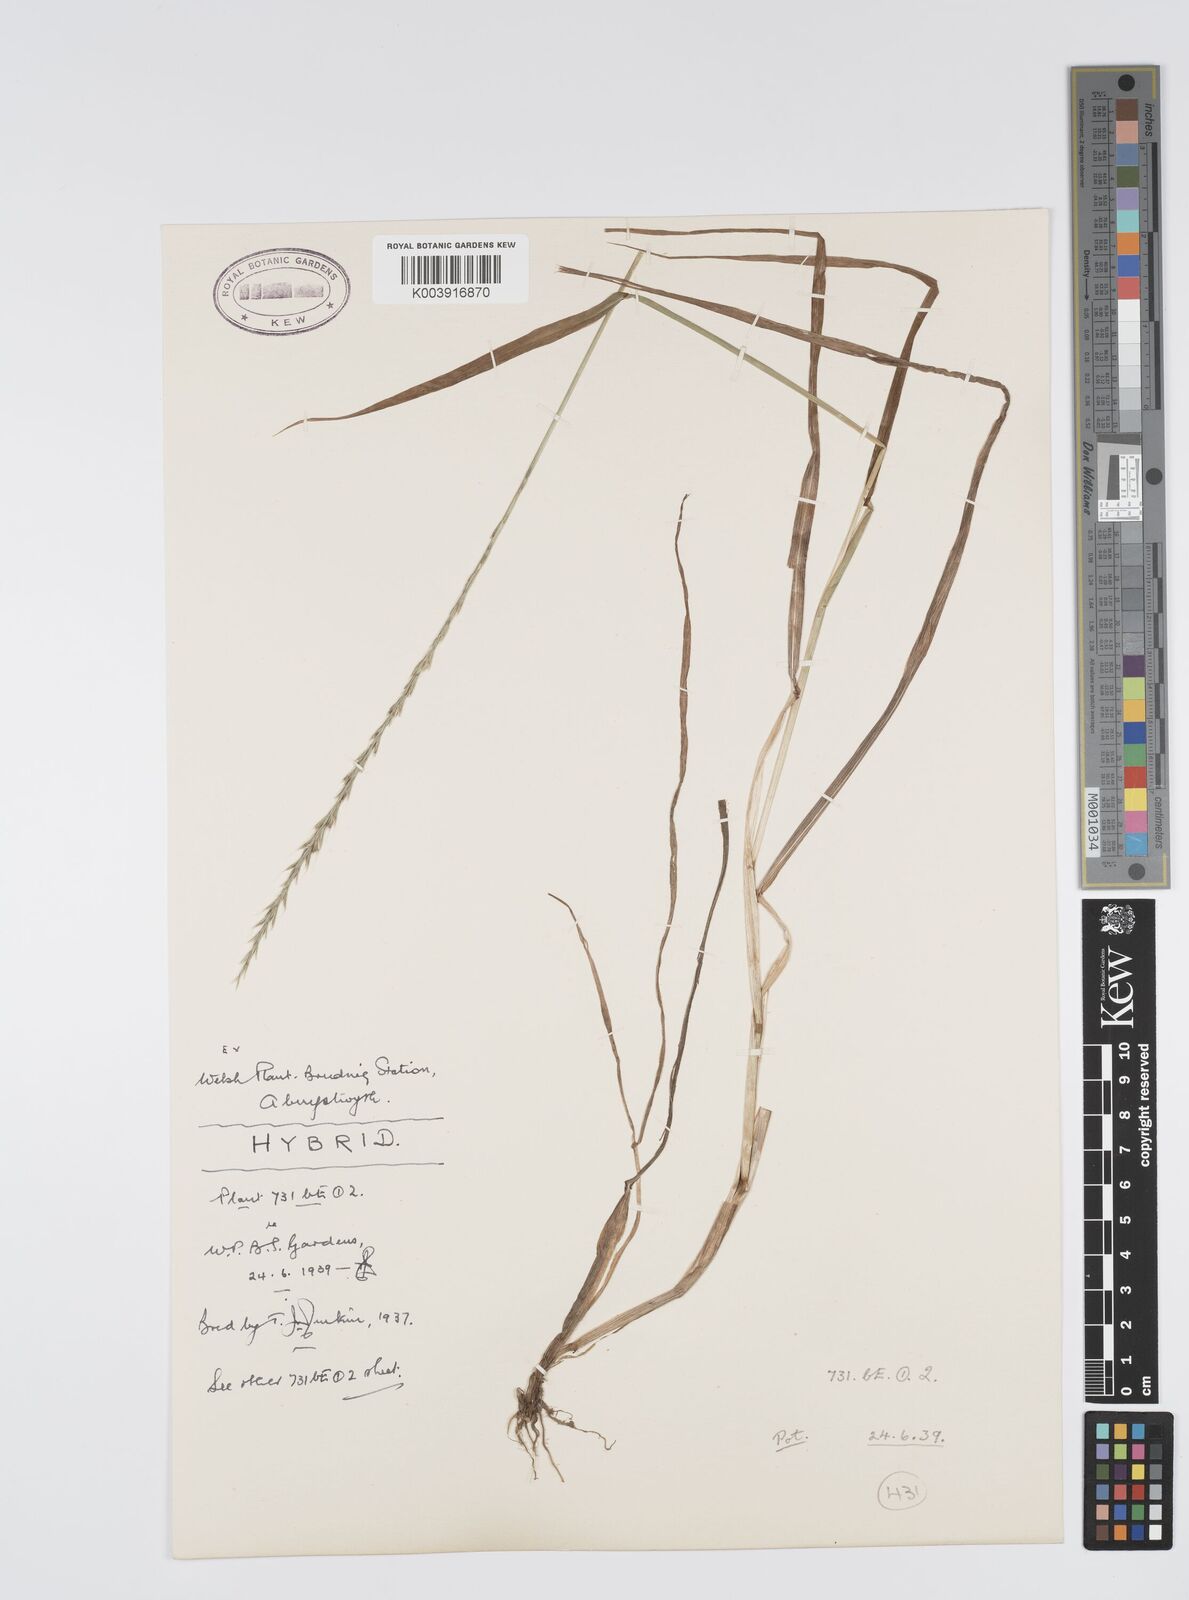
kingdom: Plantae
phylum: Tracheophyta
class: Liliopsida
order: Poales
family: Poaceae
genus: Lolium
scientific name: Lolium multiflorum
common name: Annual ryegrass
